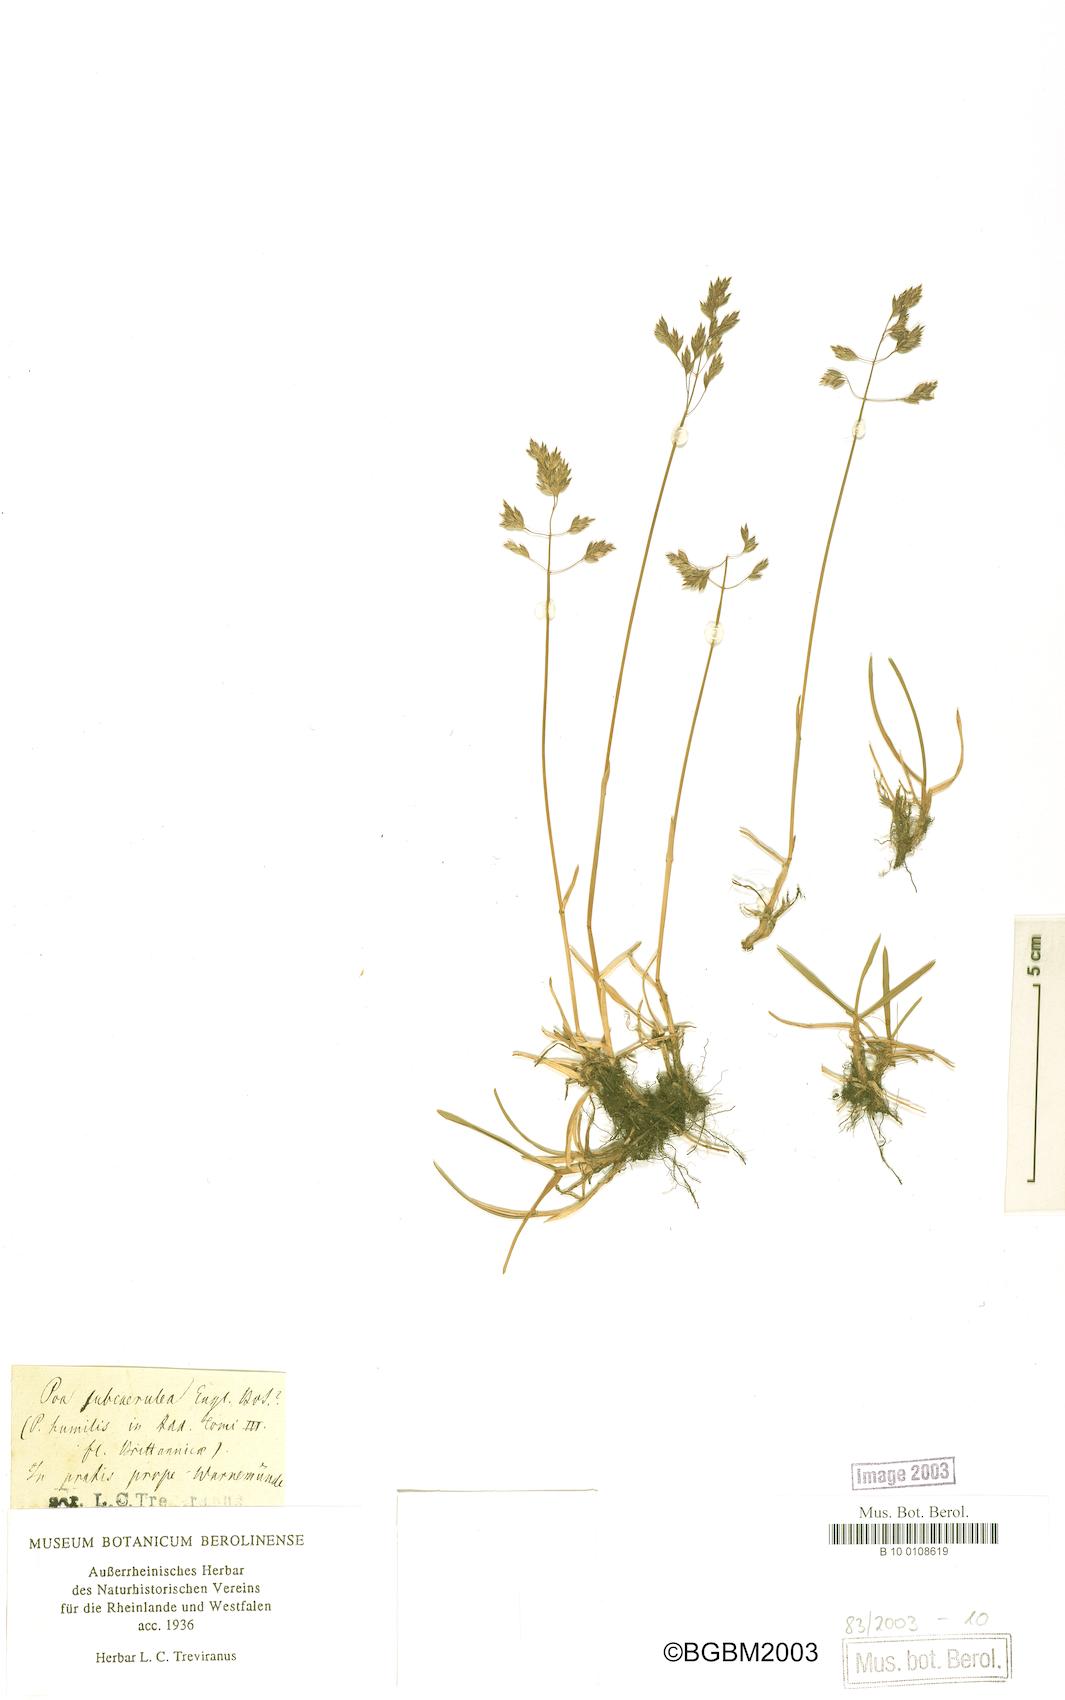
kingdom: Plantae
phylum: Tracheophyta
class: Liliopsida
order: Poales
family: Poaceae
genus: Poa
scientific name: Poa humilis
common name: Spreading meadow-grass
